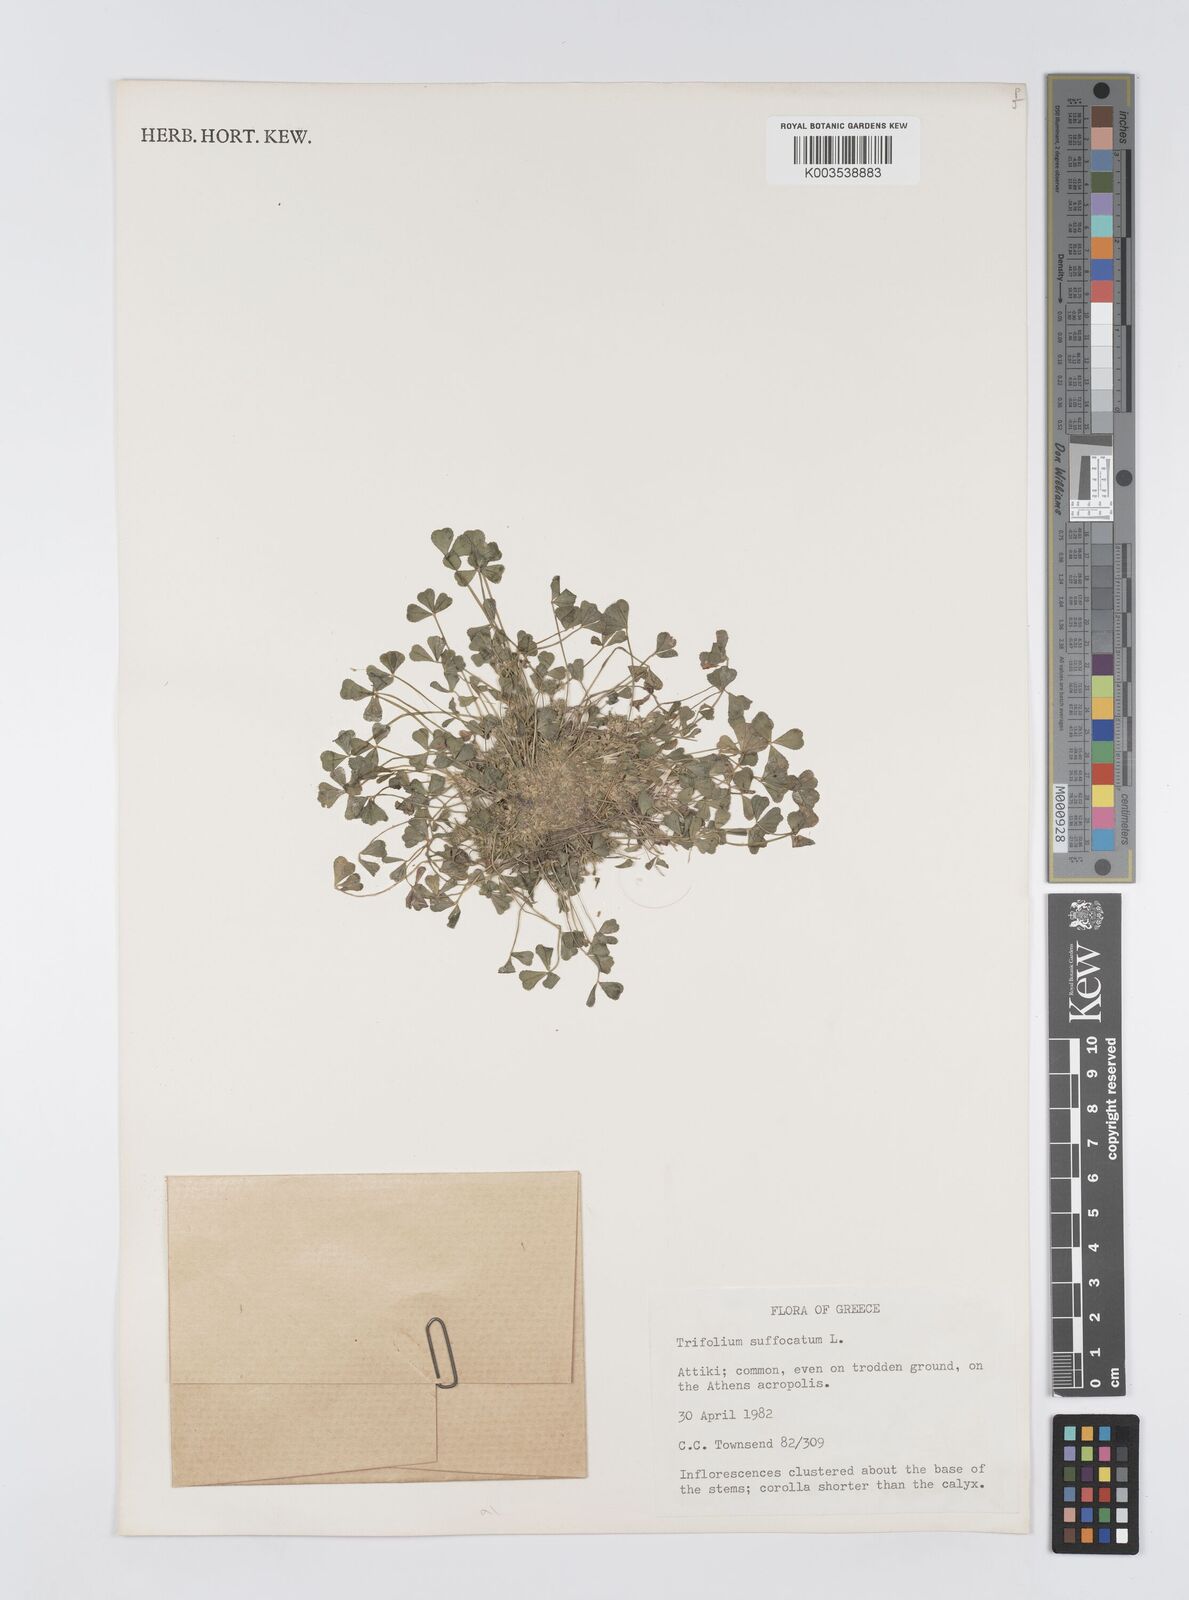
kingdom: Plantae
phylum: Tracheophyta
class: Magnoliopsida
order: Fabales
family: Fabaceae
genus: Trifolium
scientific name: Trifolium suffocatum
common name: Suffocated clover
